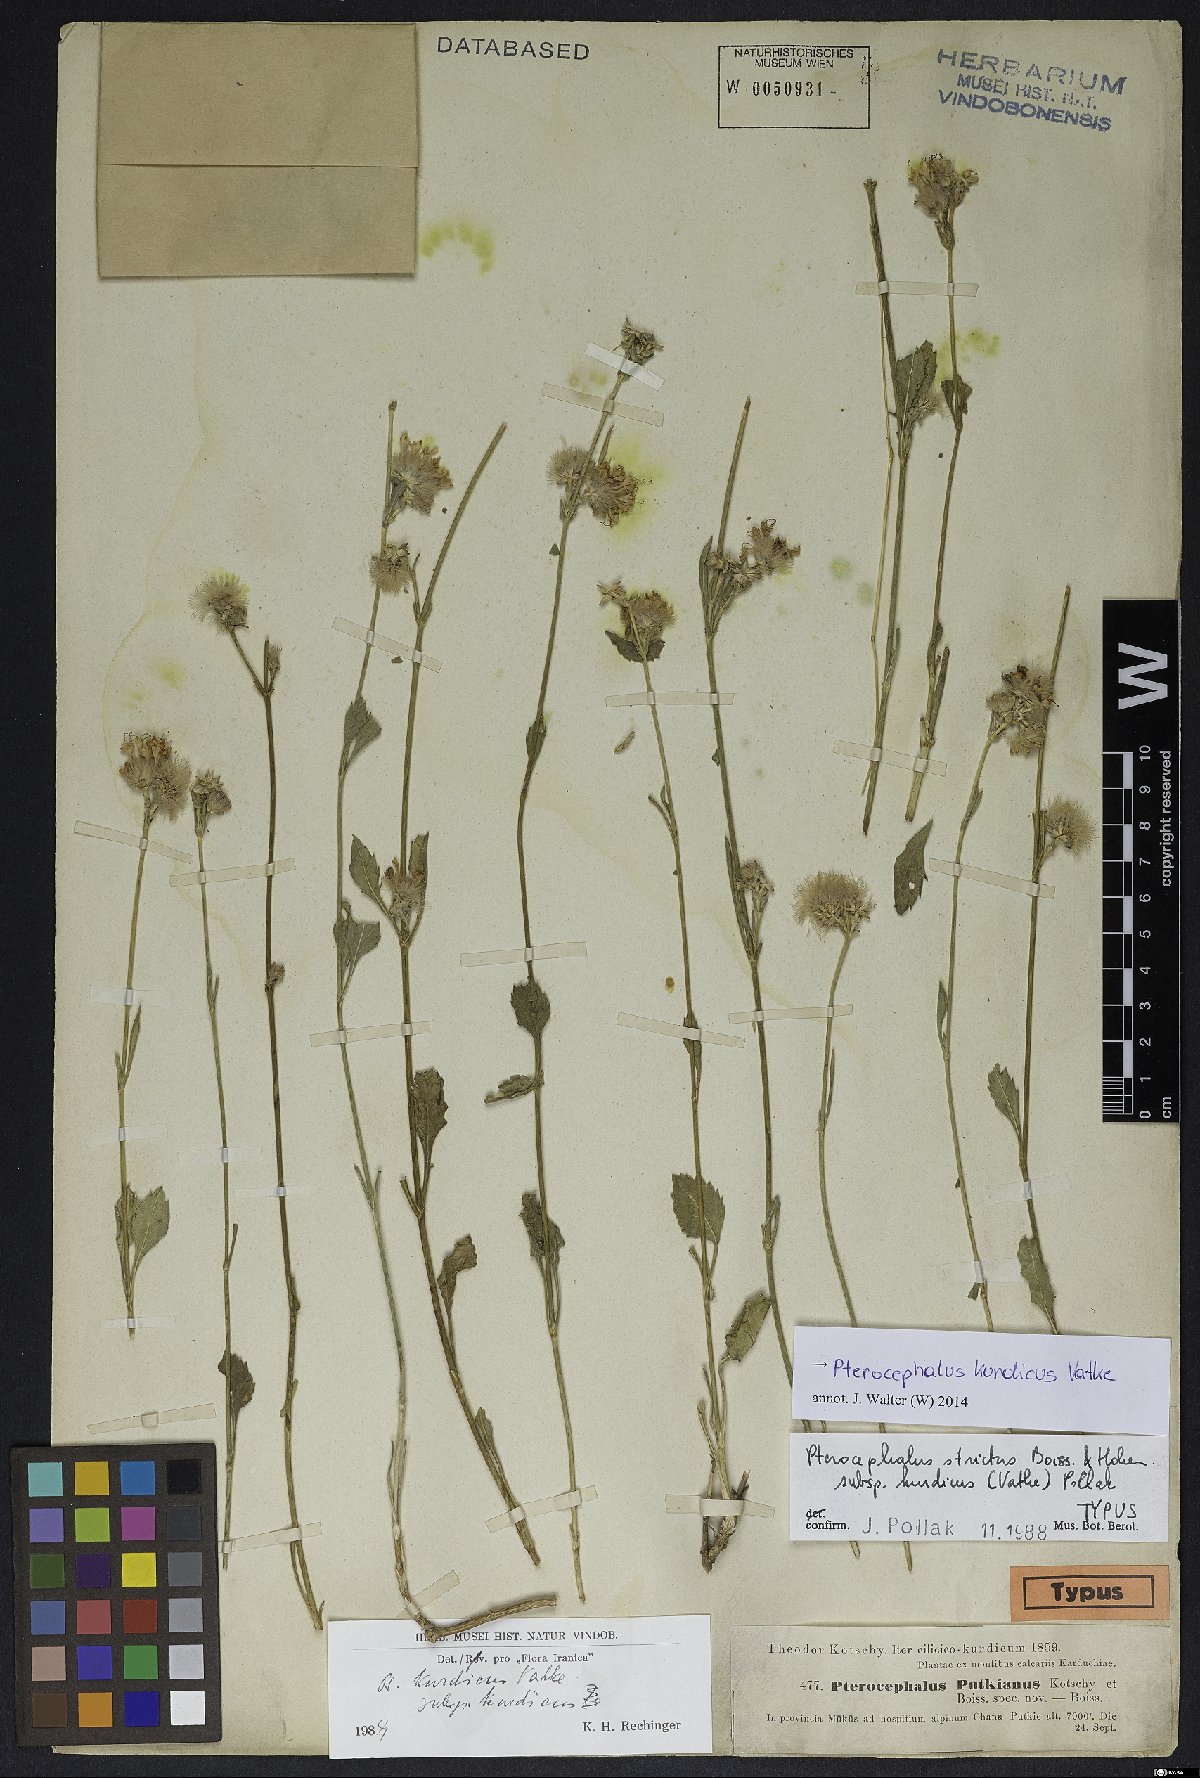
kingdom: Plantae
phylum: Tracheophyta
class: Magnoliopsida
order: Dipsacales
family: Caprifoliaceae
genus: Pterocephalus
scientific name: Pterocephalus kurdicus
